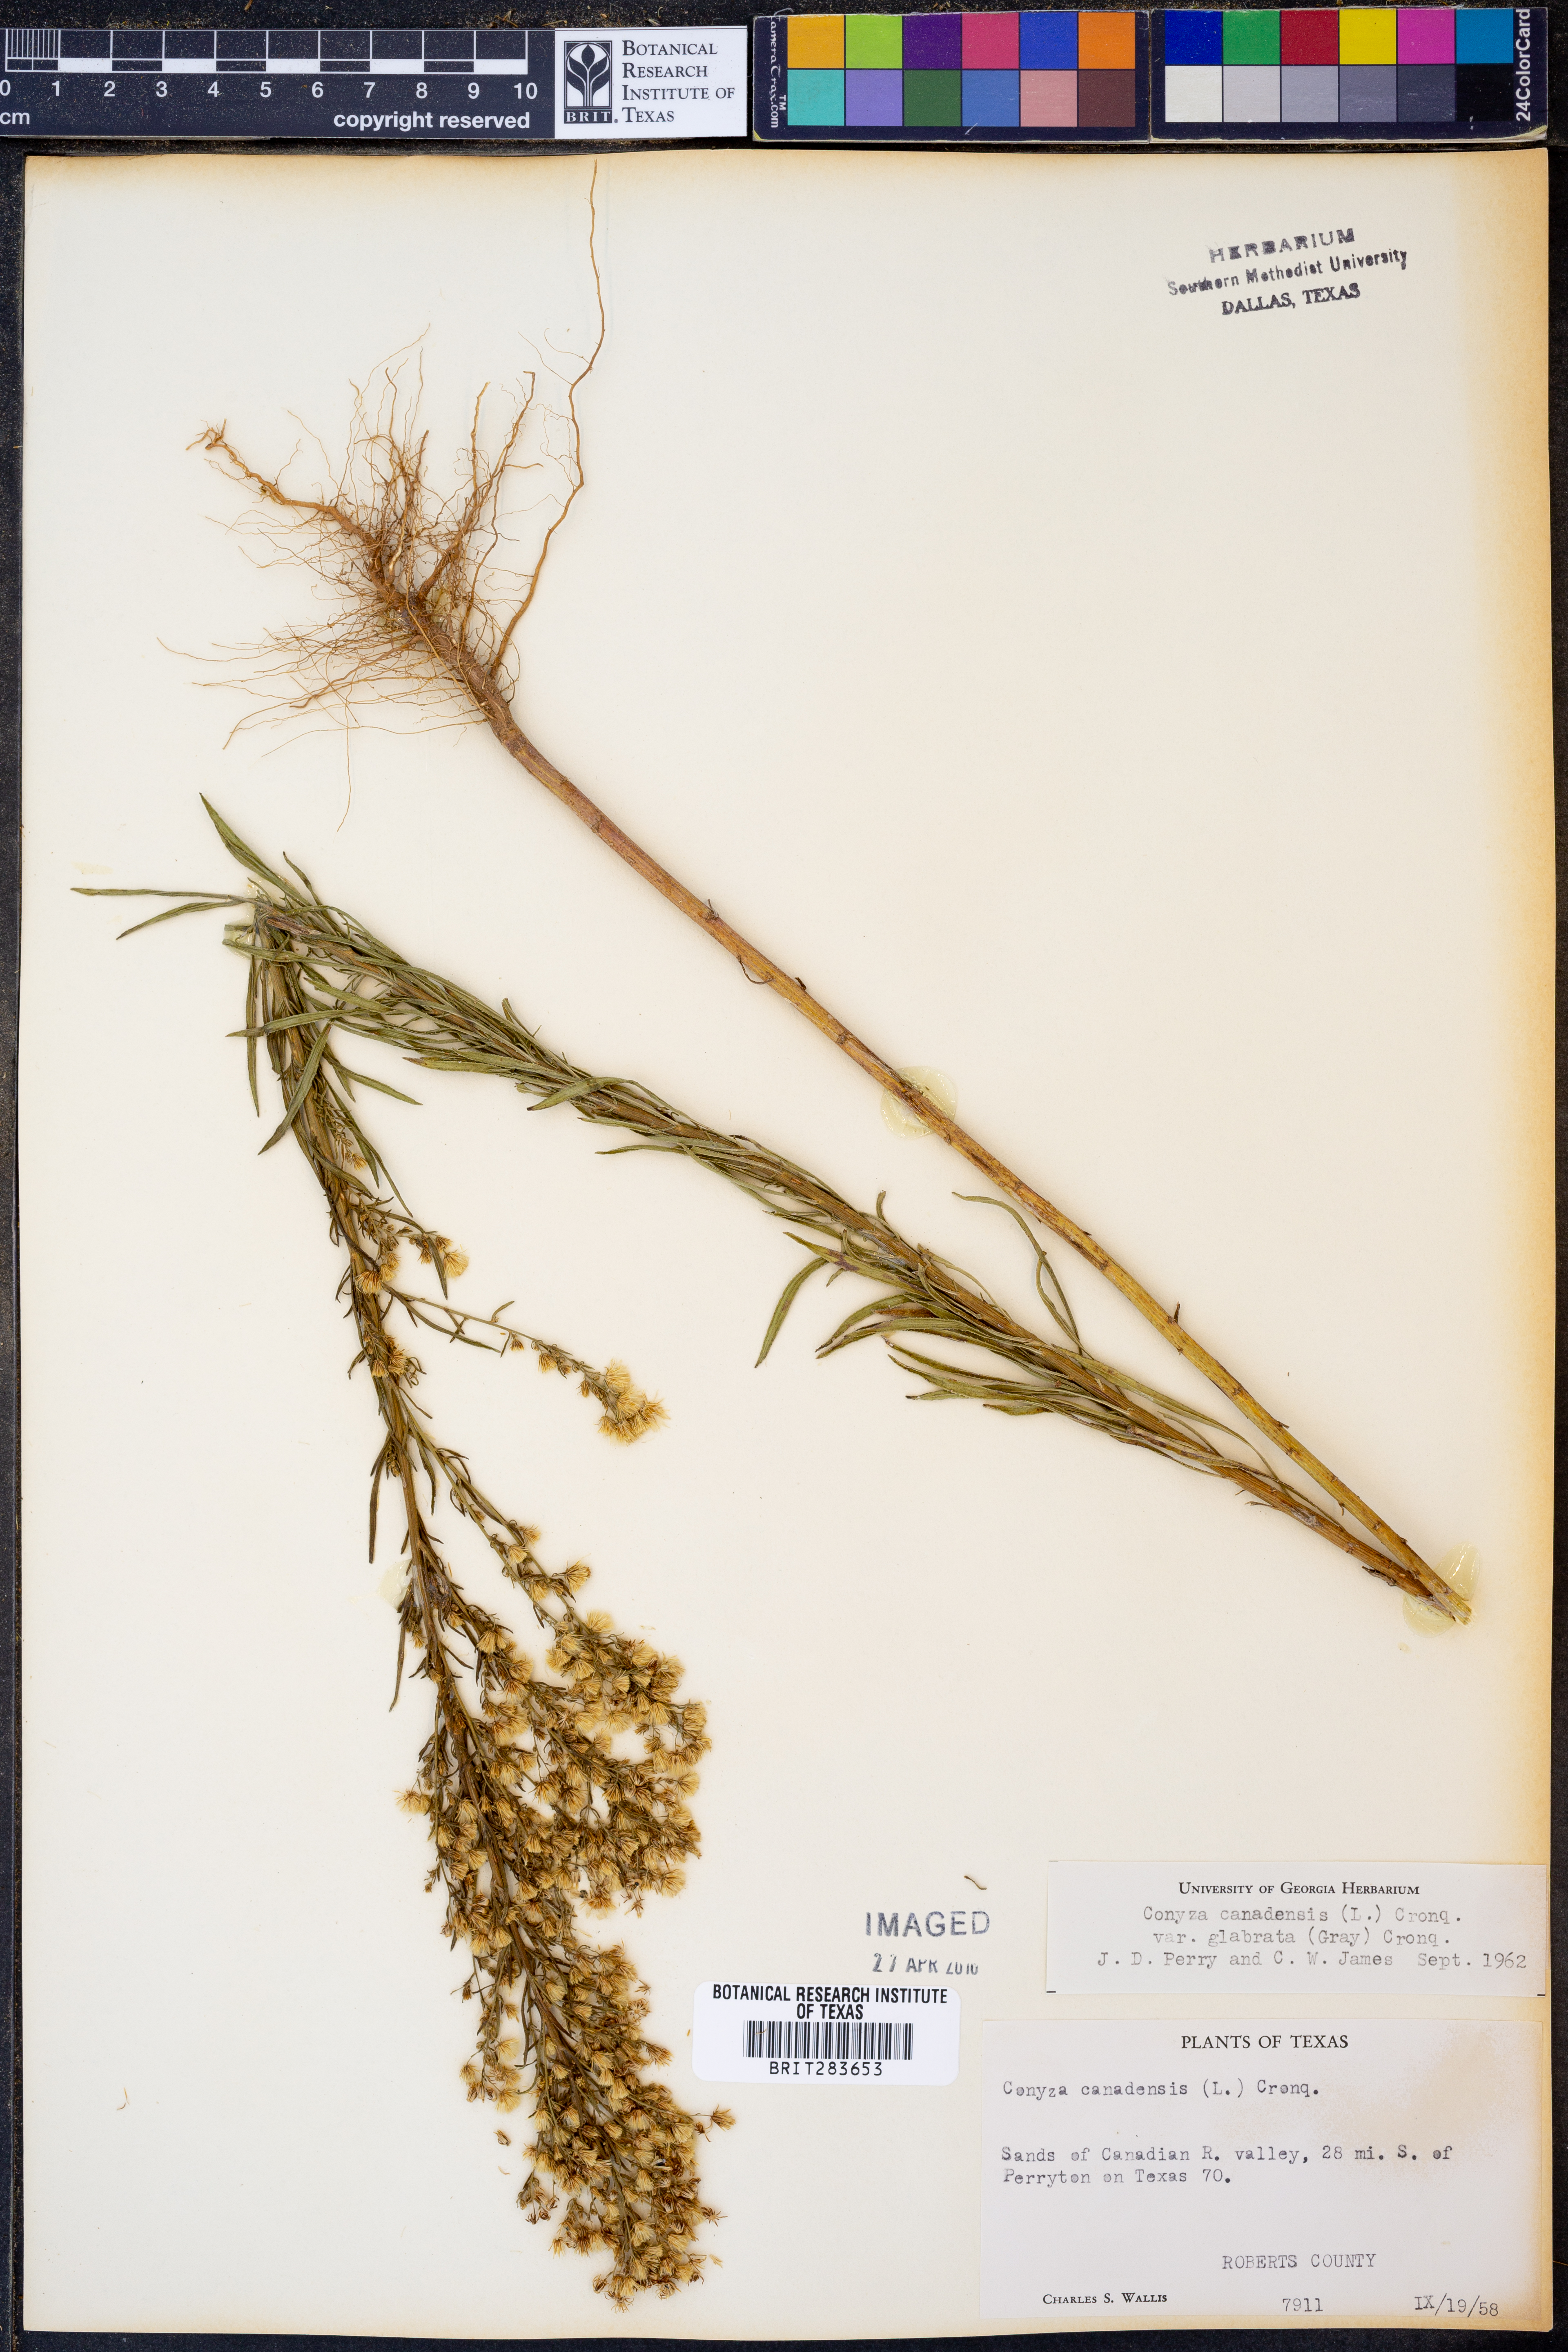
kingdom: Plantae
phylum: Tracheophyta
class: Magnoliopsida
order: Asterales
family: Asteraceae
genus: Erigeron
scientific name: Erigeron canadensis
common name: Canadian fleabane
